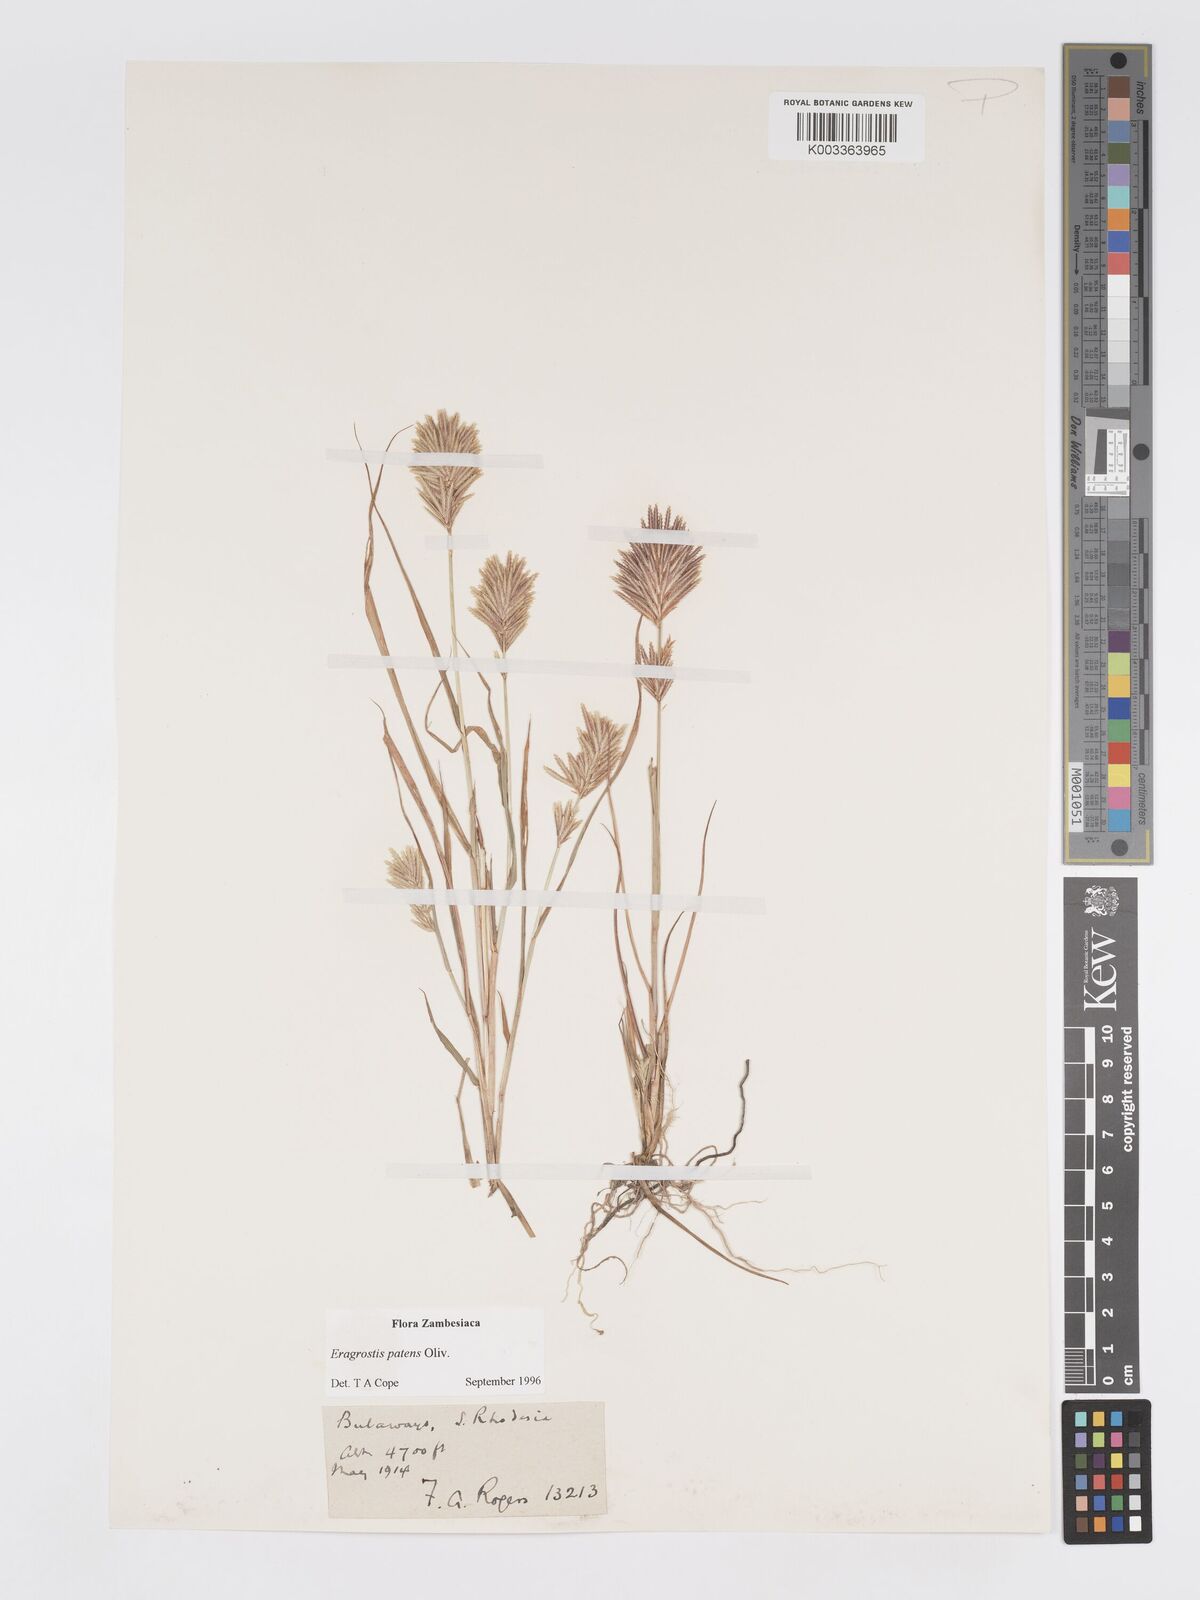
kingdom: Plantae
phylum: Tracheophyta
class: Liliopsida
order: Poales
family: Poaceae
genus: Eragrostis
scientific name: Eragrostis patens
